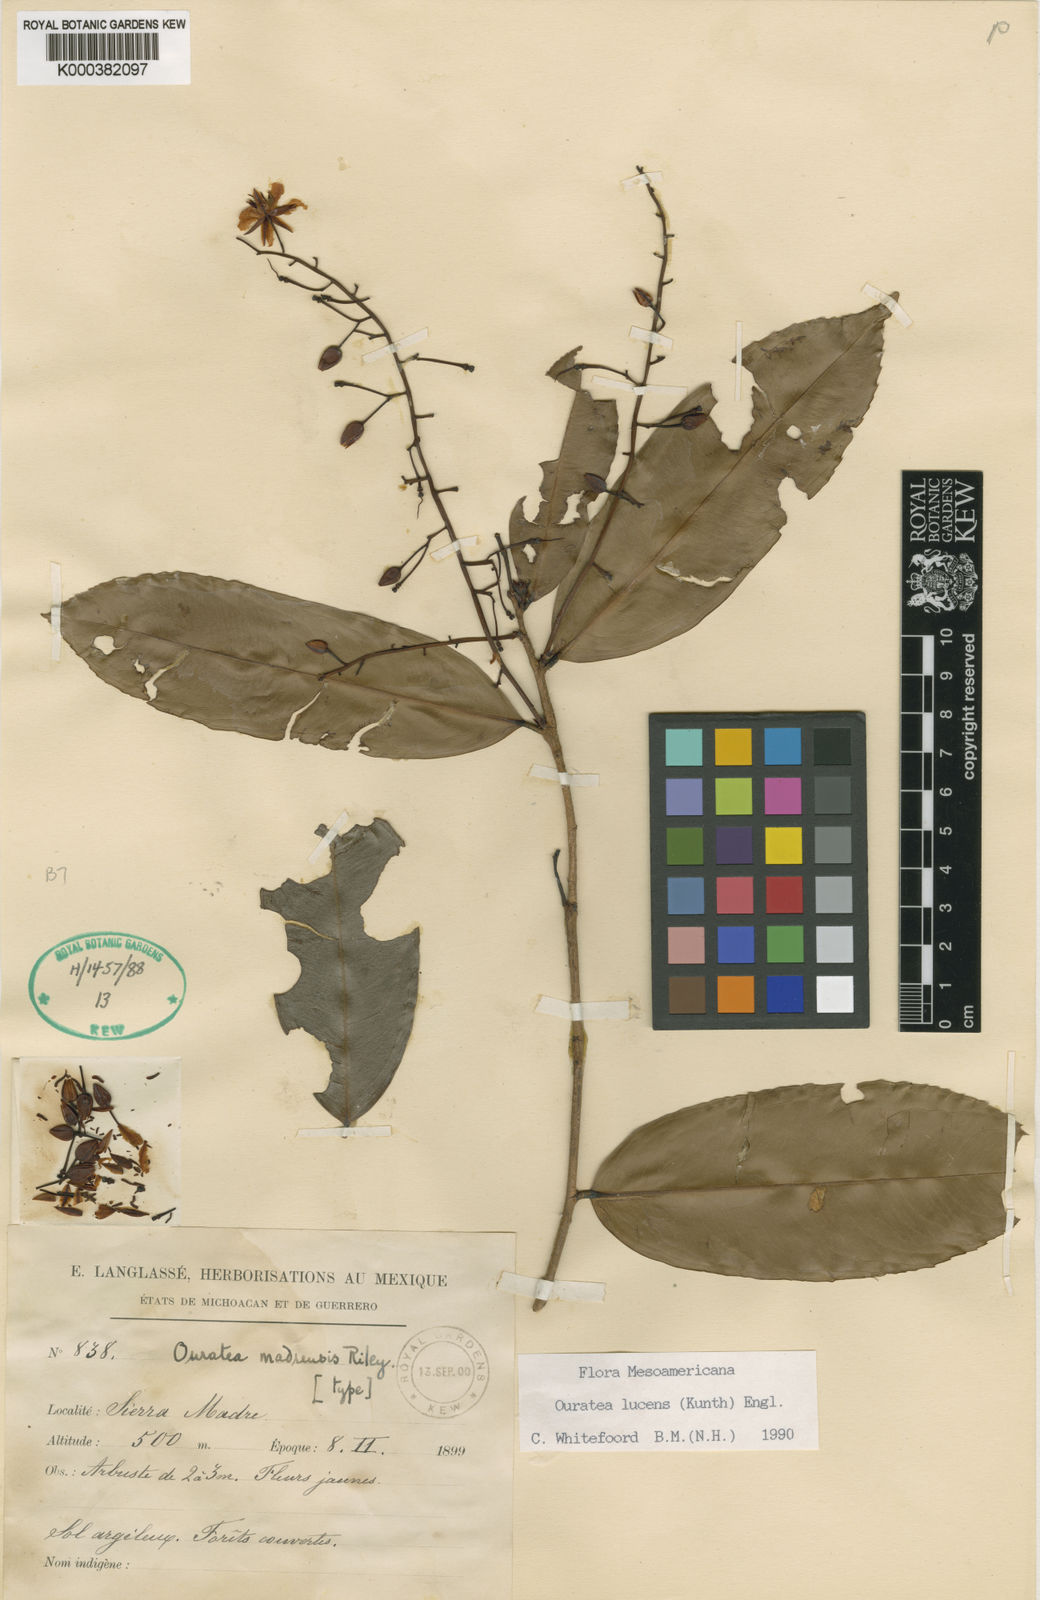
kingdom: Plantae
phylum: Tracheophyta
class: Magnoliopsida
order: Malpighiales
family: Ochnaceae
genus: Ouratea
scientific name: Ouratea lucens
